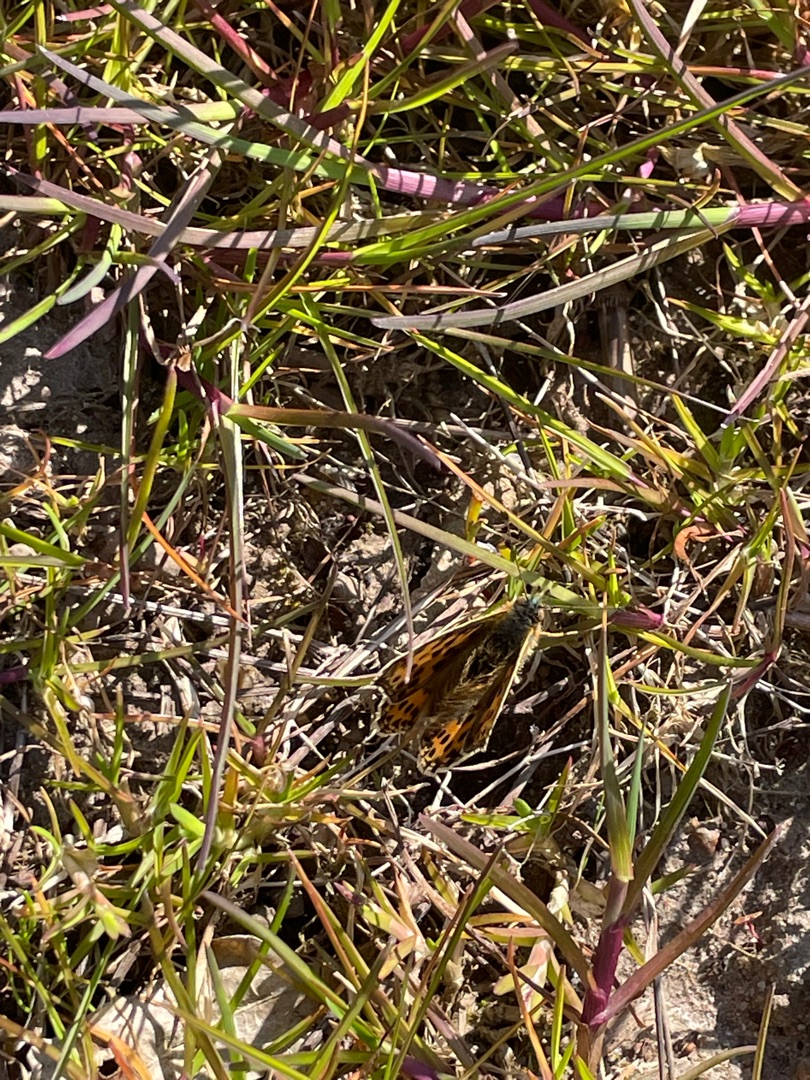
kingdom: Animalia
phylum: Arthropoda
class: Insecta
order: Lepidoptera
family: Nymphalidae
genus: Issoria
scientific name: Issoria lathonia
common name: Storplettet perlemorsommerfugl
